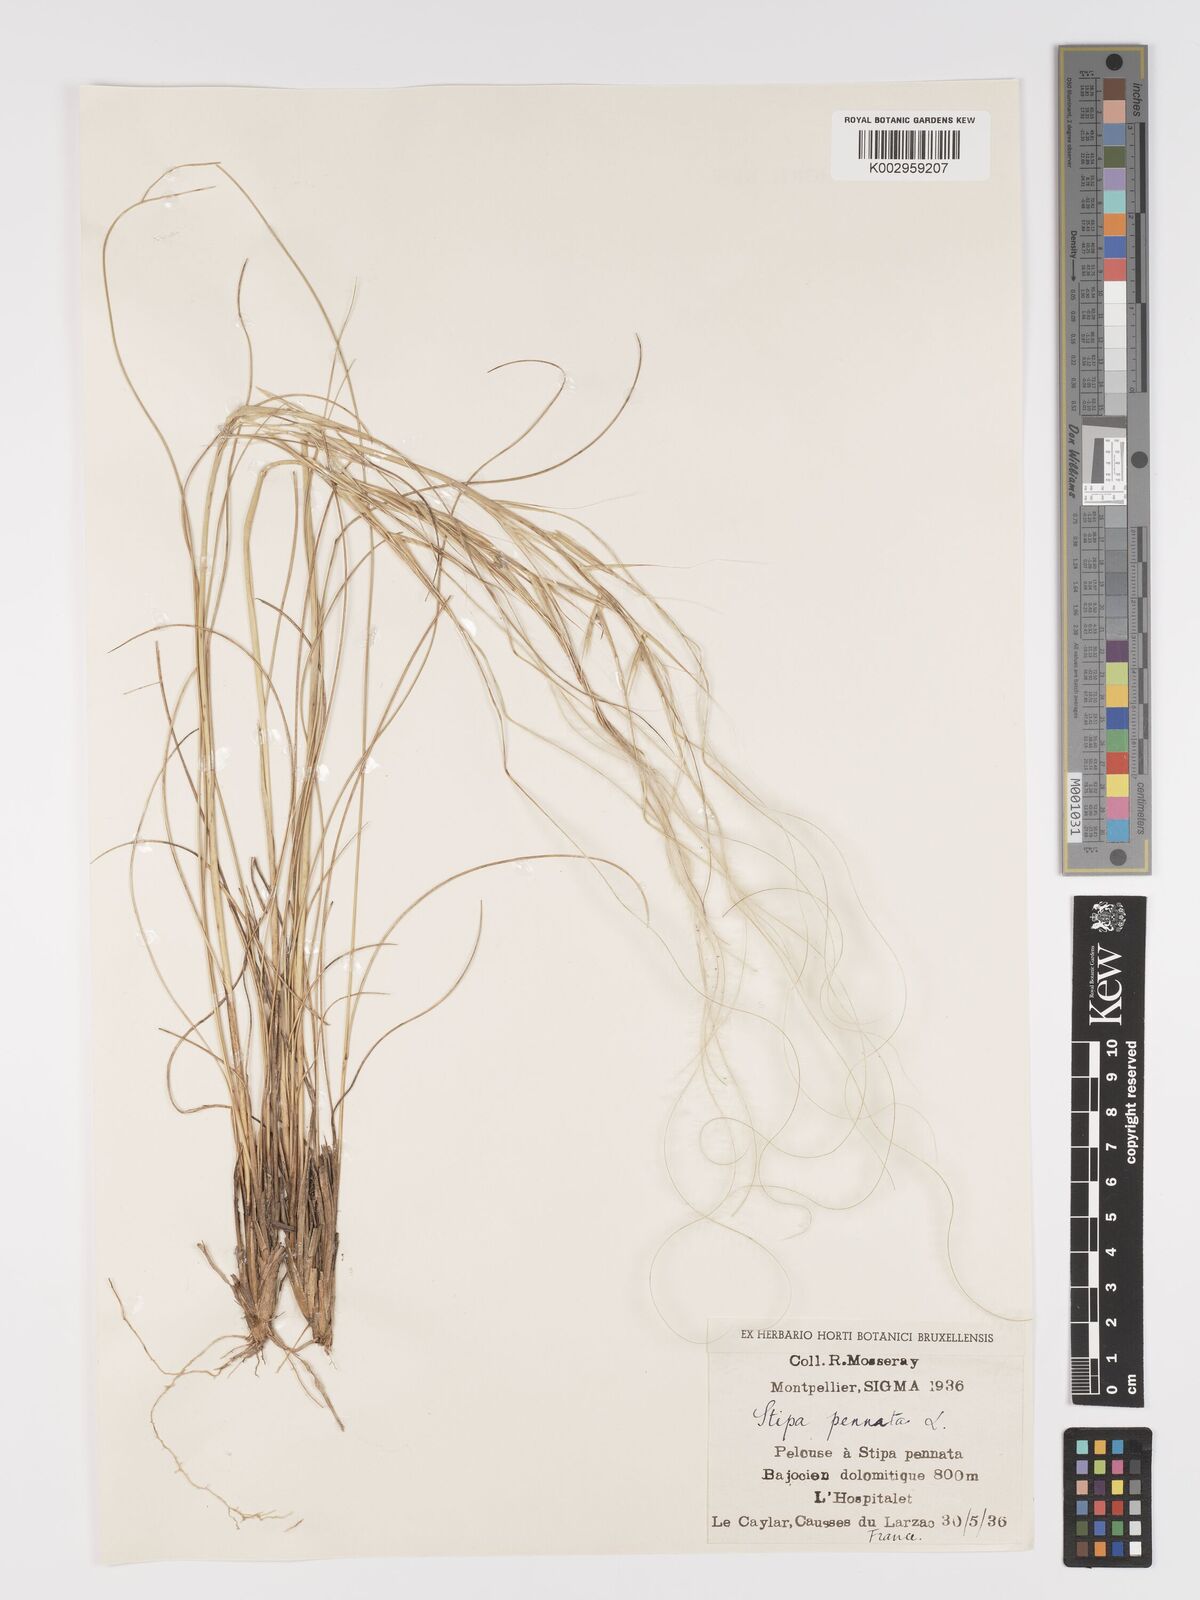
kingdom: Plantae
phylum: Tracheophyta
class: Liliopsida
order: Poales
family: Poaceae
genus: Stipa
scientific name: Stipa pennata
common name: European feather grass
